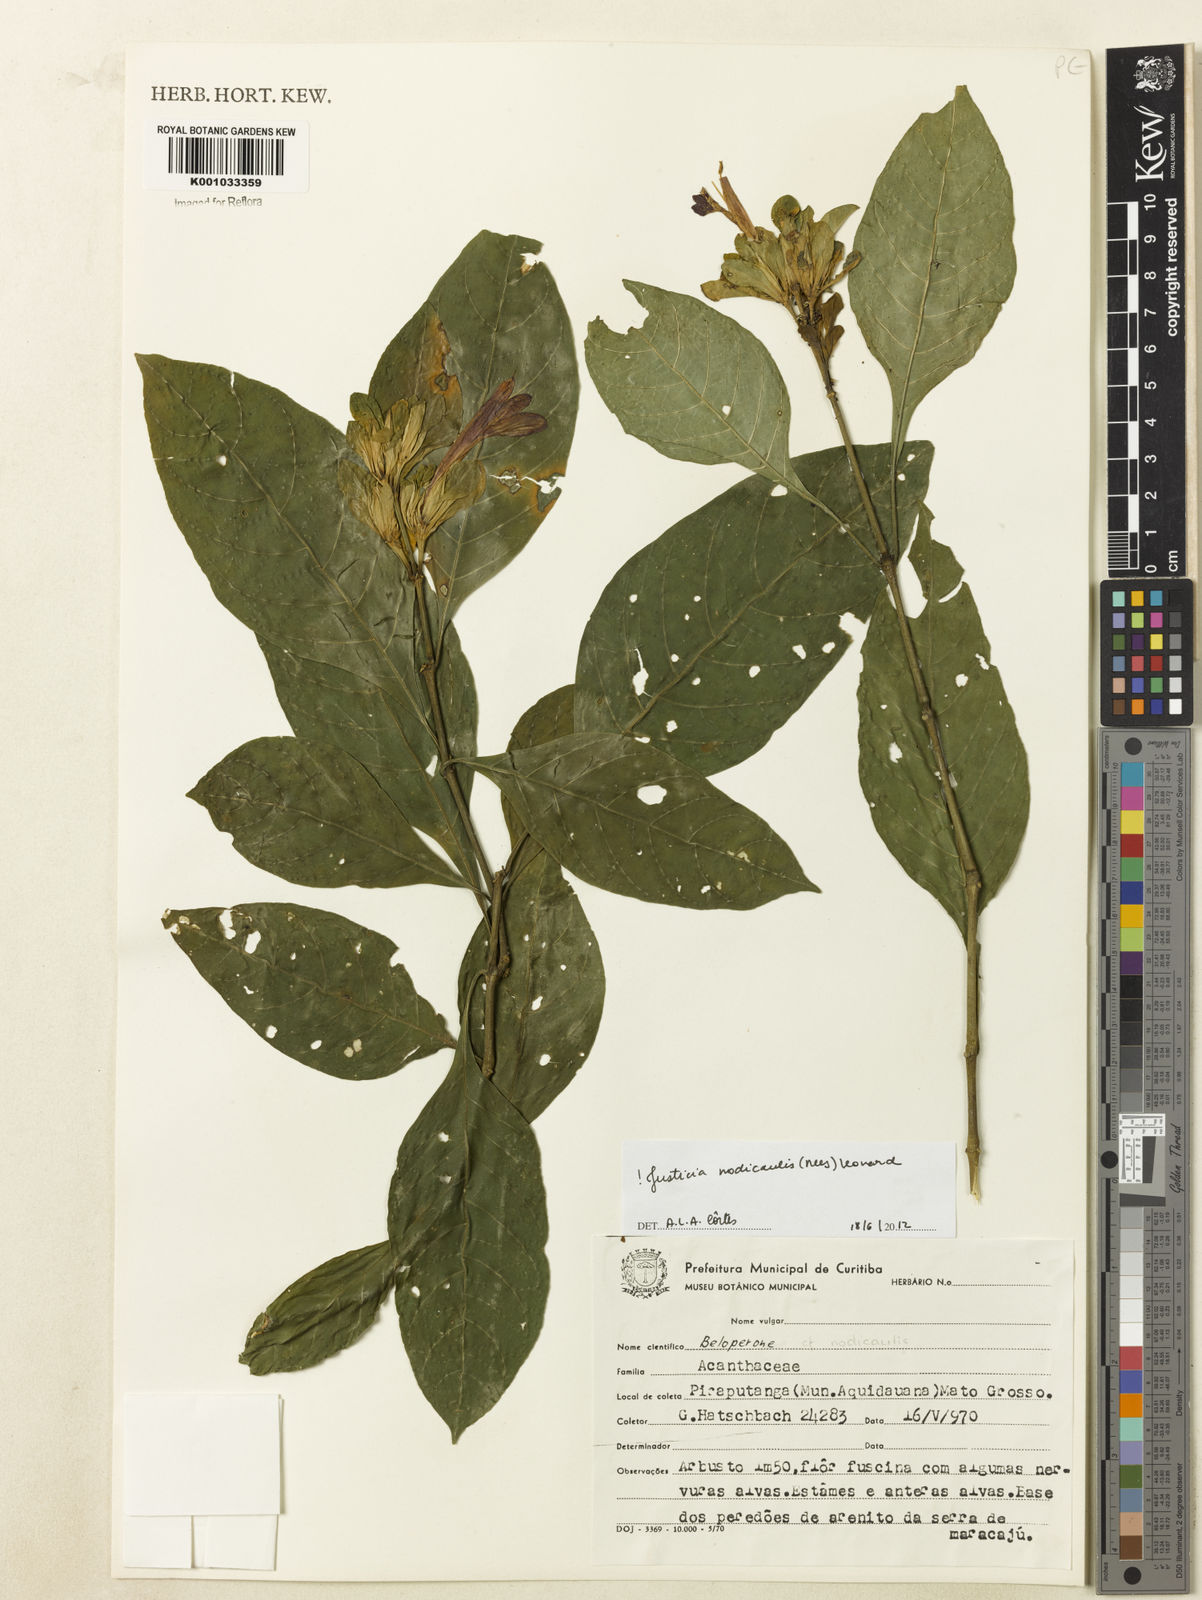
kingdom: Plantae
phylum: Tracheophyta
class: Magnoliopsida
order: Lamiales
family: Acanthaceae
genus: Justicia
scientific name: Justicia nodicaulis
